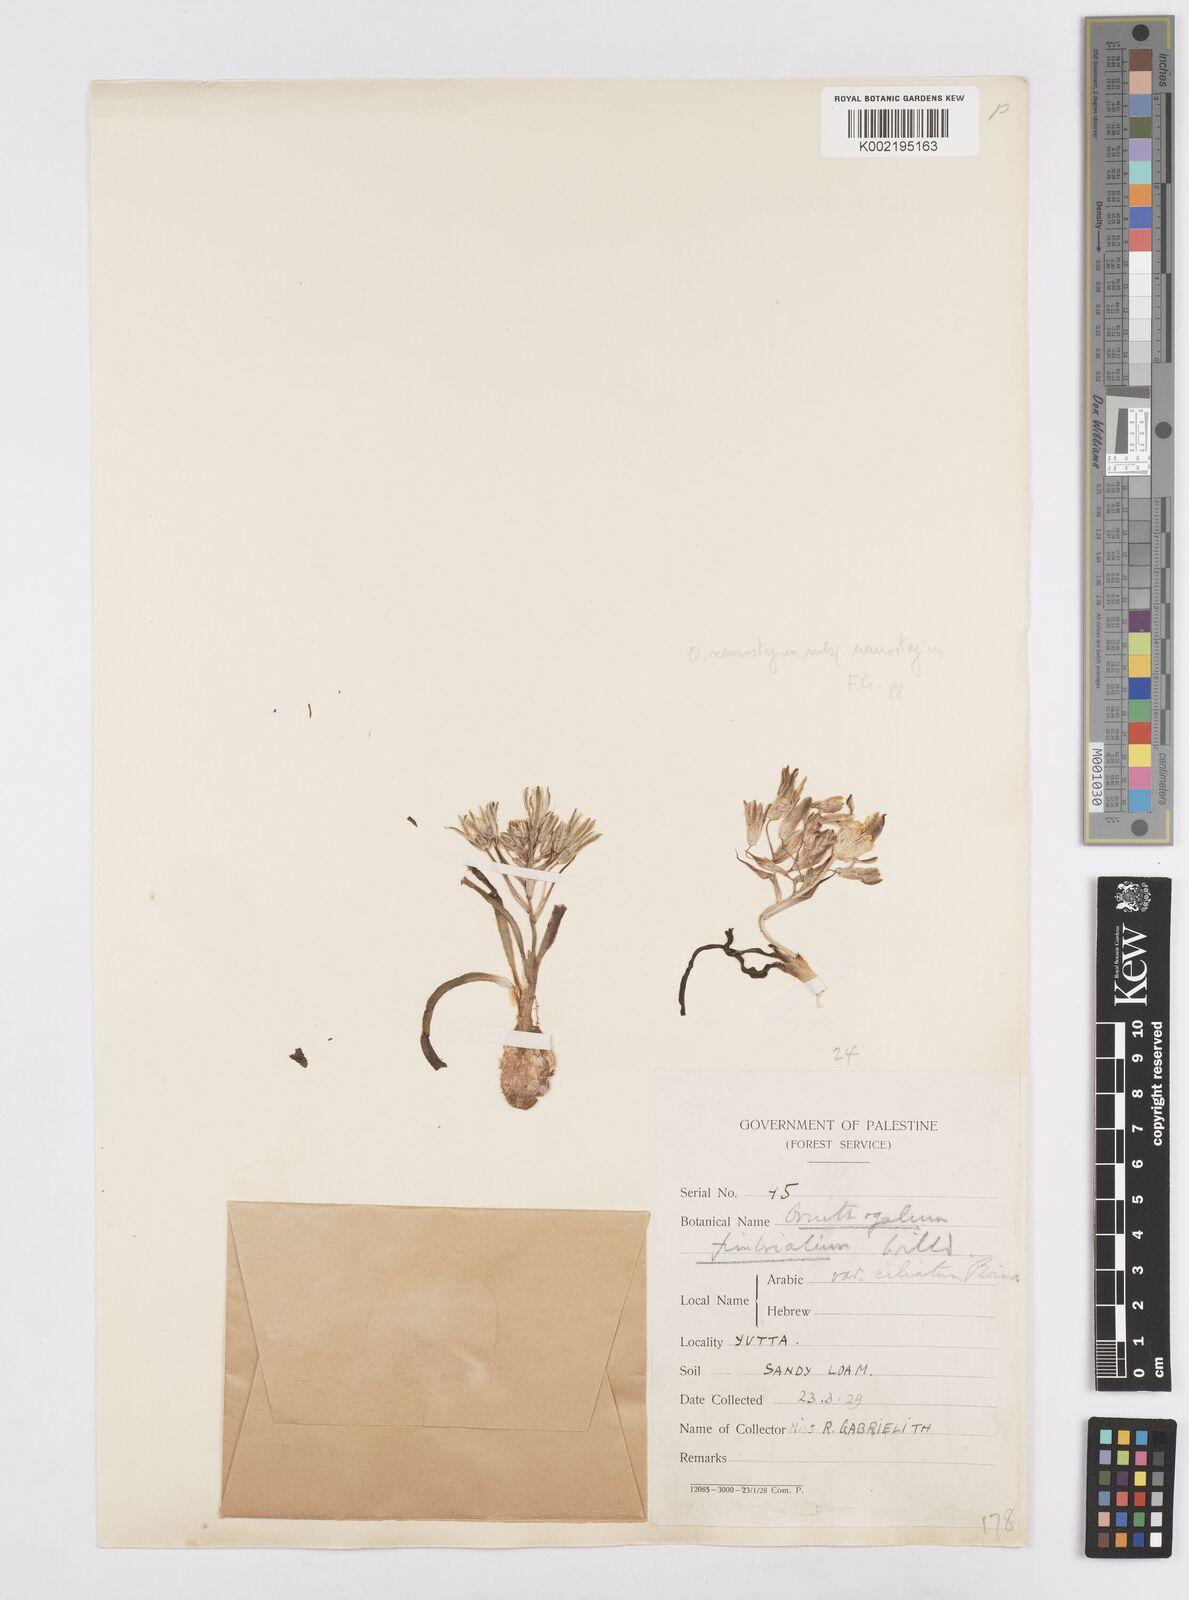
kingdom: Plantae
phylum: Tracheophyta
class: Liliopsida
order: Asparagales
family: Asparagaceae
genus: Ornithogalum
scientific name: Ornithogalum neurostegium
